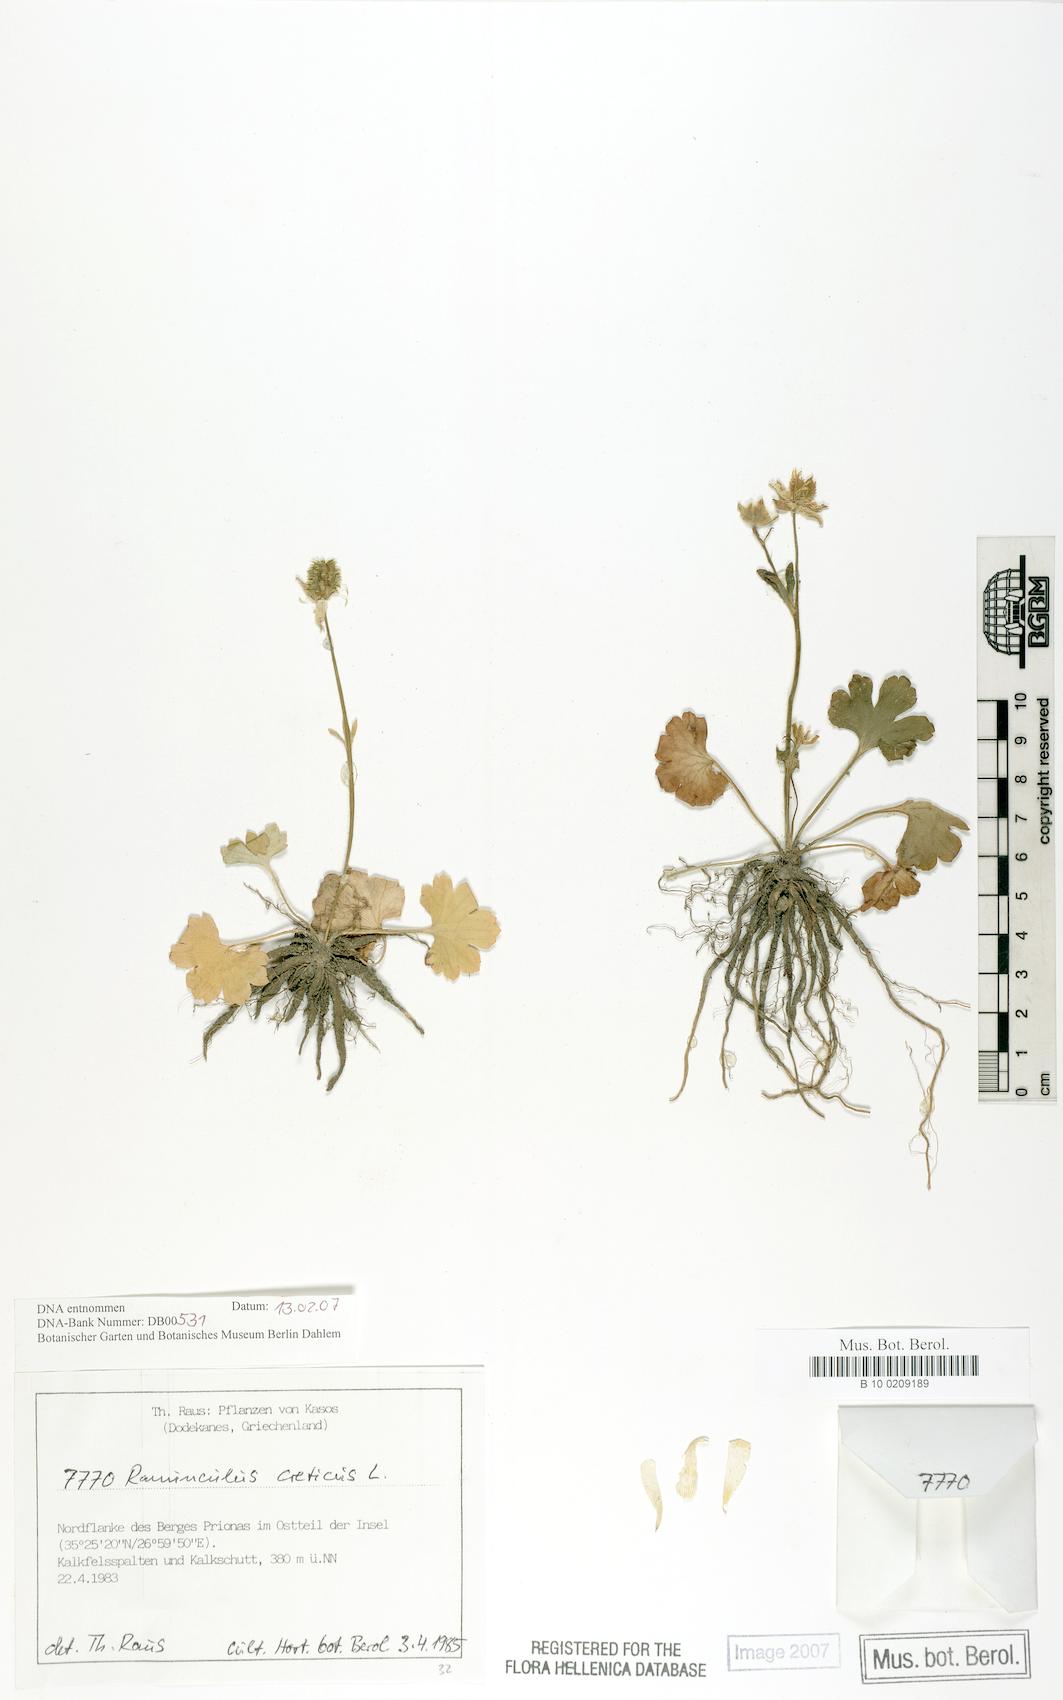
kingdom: Plantae
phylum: Tracheophyta
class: Magnoliopsida
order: Ranunculales
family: Ranunculaceae
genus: Ranunculus
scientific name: Ranunculus creticus
